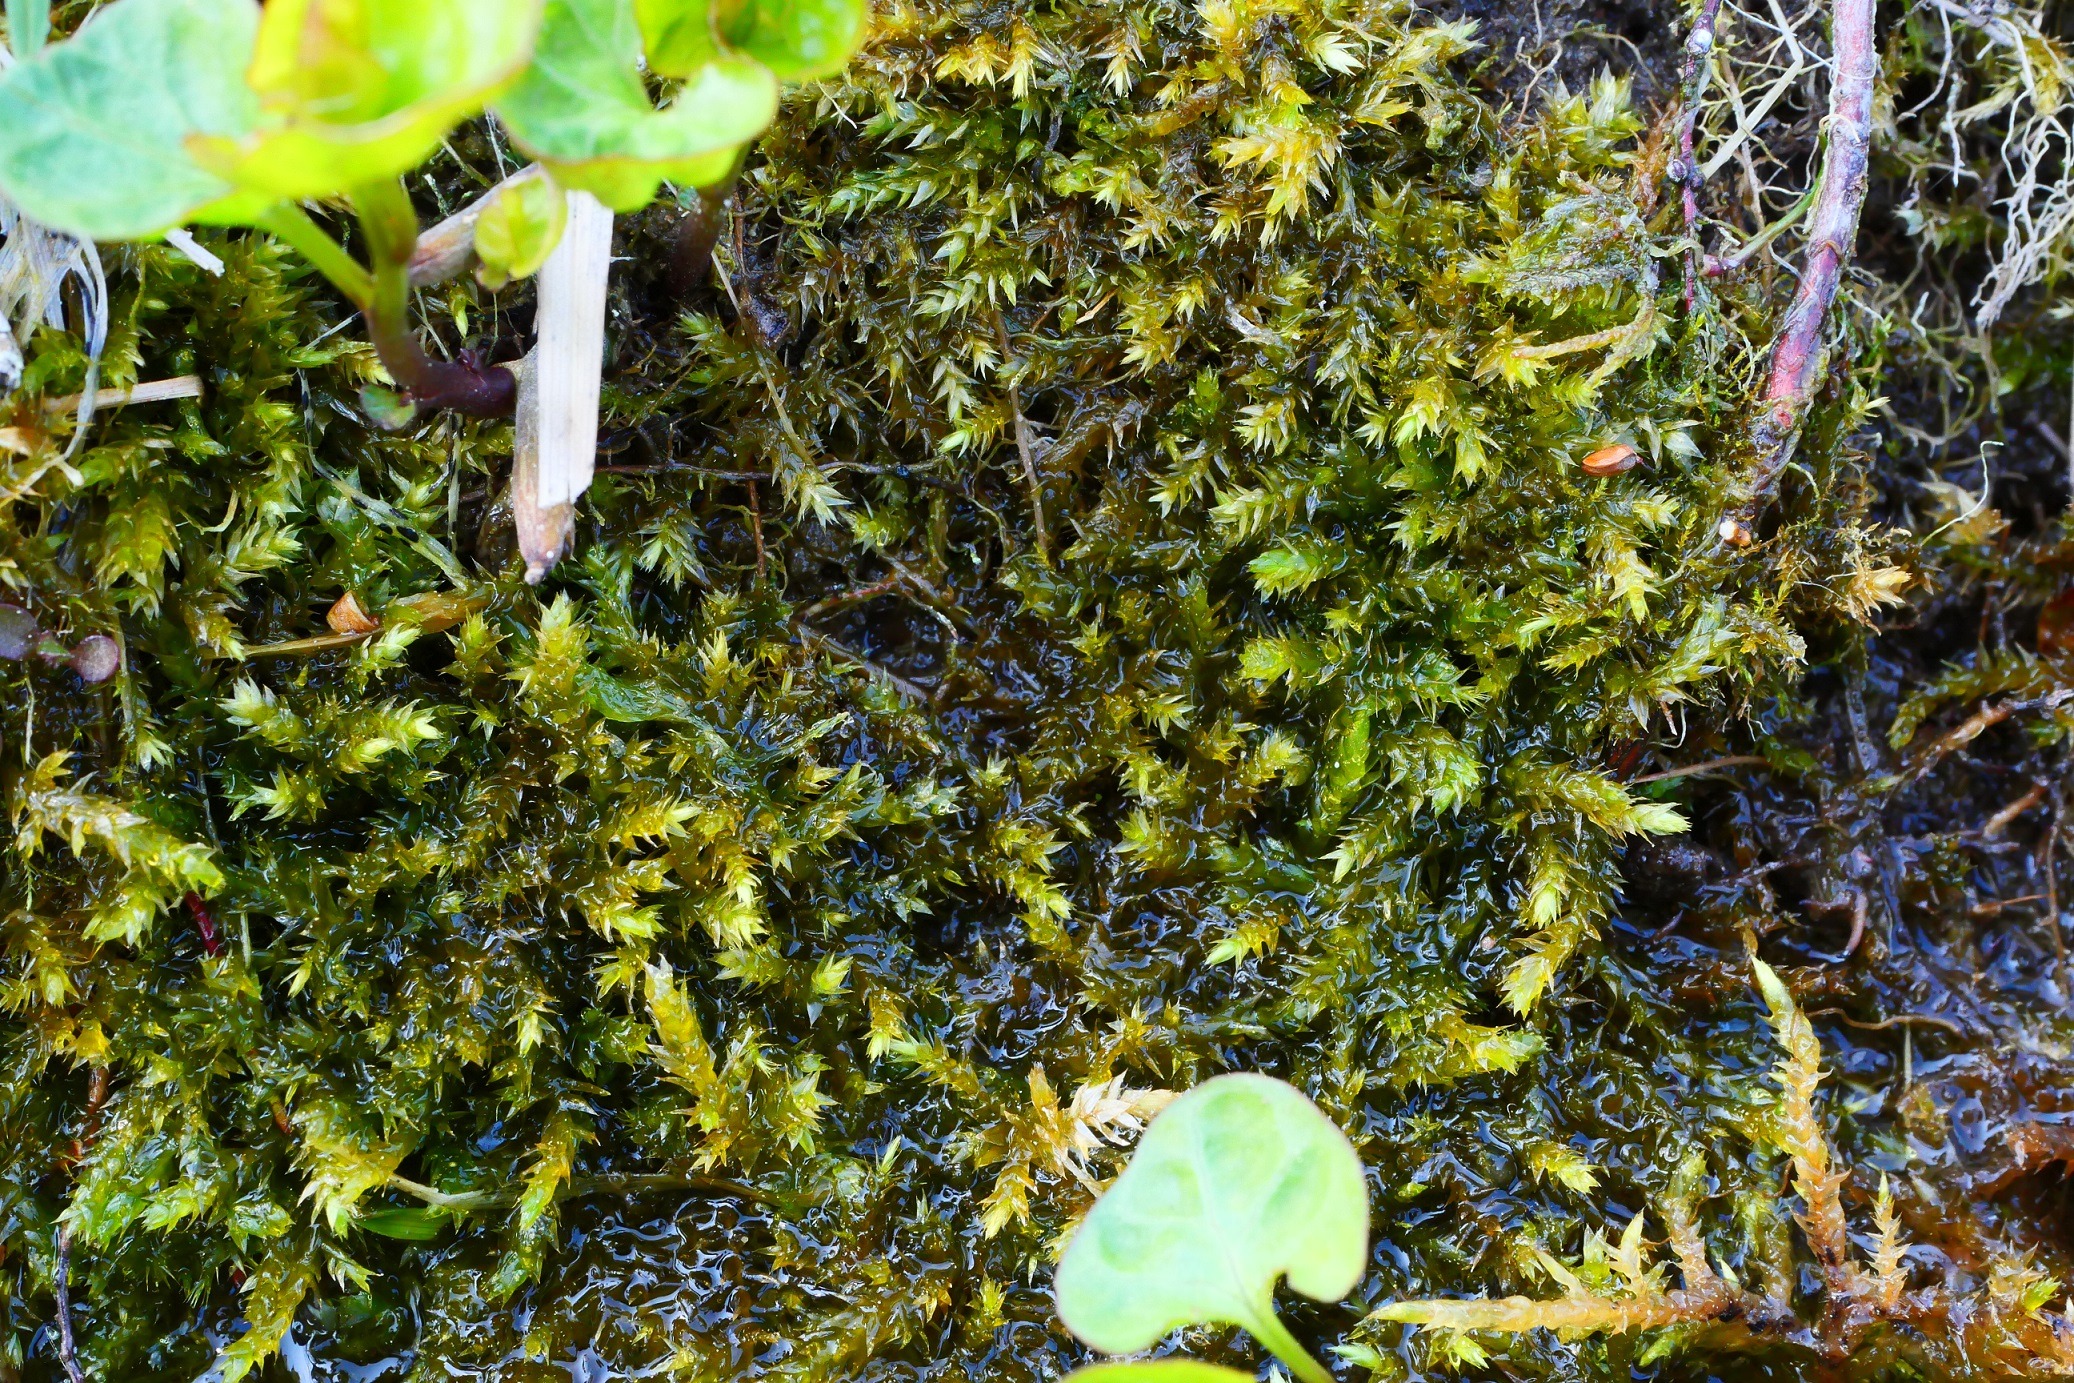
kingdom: Plantae
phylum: Bryophyta
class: Bryopsida
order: Hypnales
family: Brachytheciaceae
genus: Oxyrrhynchium
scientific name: Oxyrrhynchium speciosum
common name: Stor vortetand
